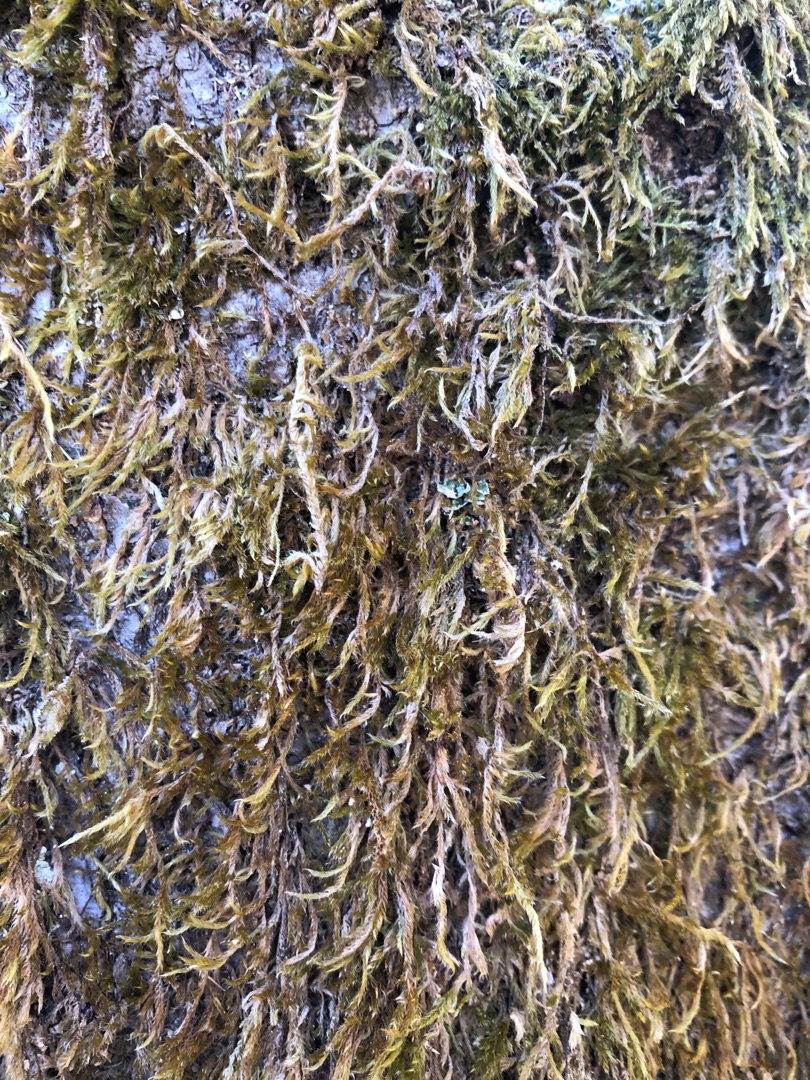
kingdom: Plantae
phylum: Bryophyta
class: Bryopsida
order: Hypnales
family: Hypnaceae
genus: Hypnum
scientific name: Hypnum
